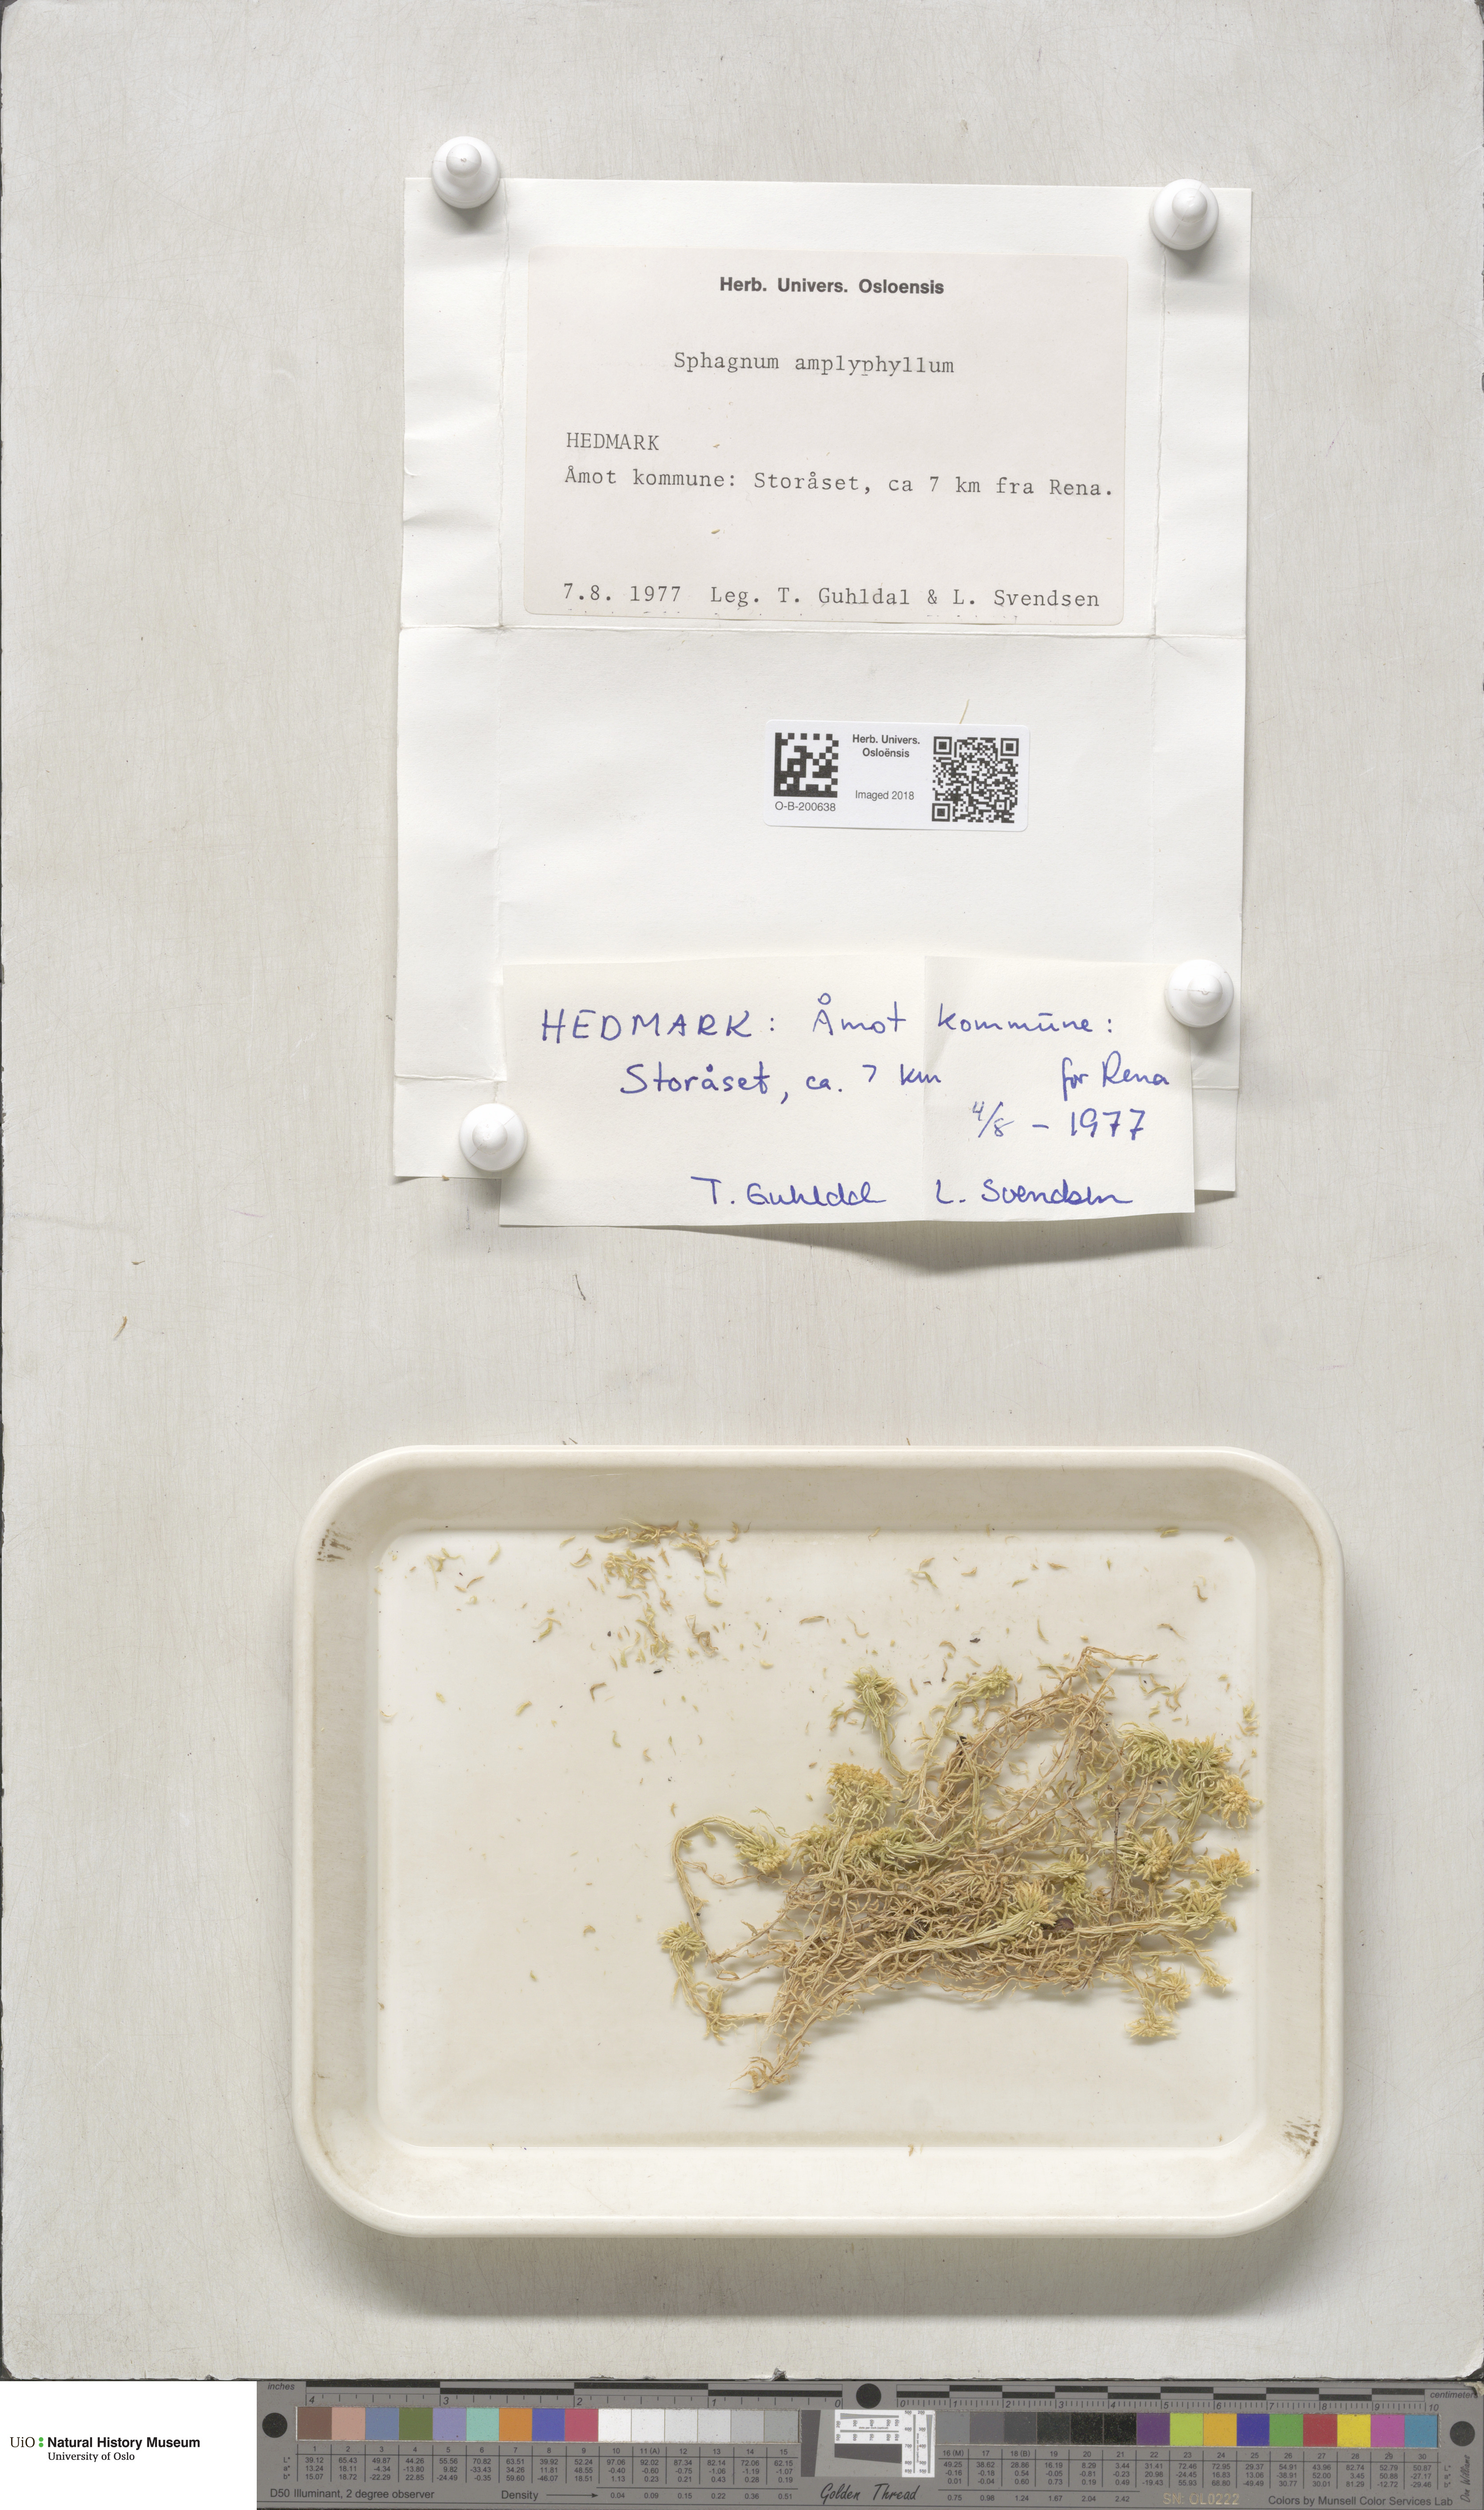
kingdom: Plantae
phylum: Bryophyta
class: Sphagnopsida
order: Sphagnales
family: Sphagnaceae
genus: Sphagnum
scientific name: Sphagnum flexuosum
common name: Flexible peat moss
